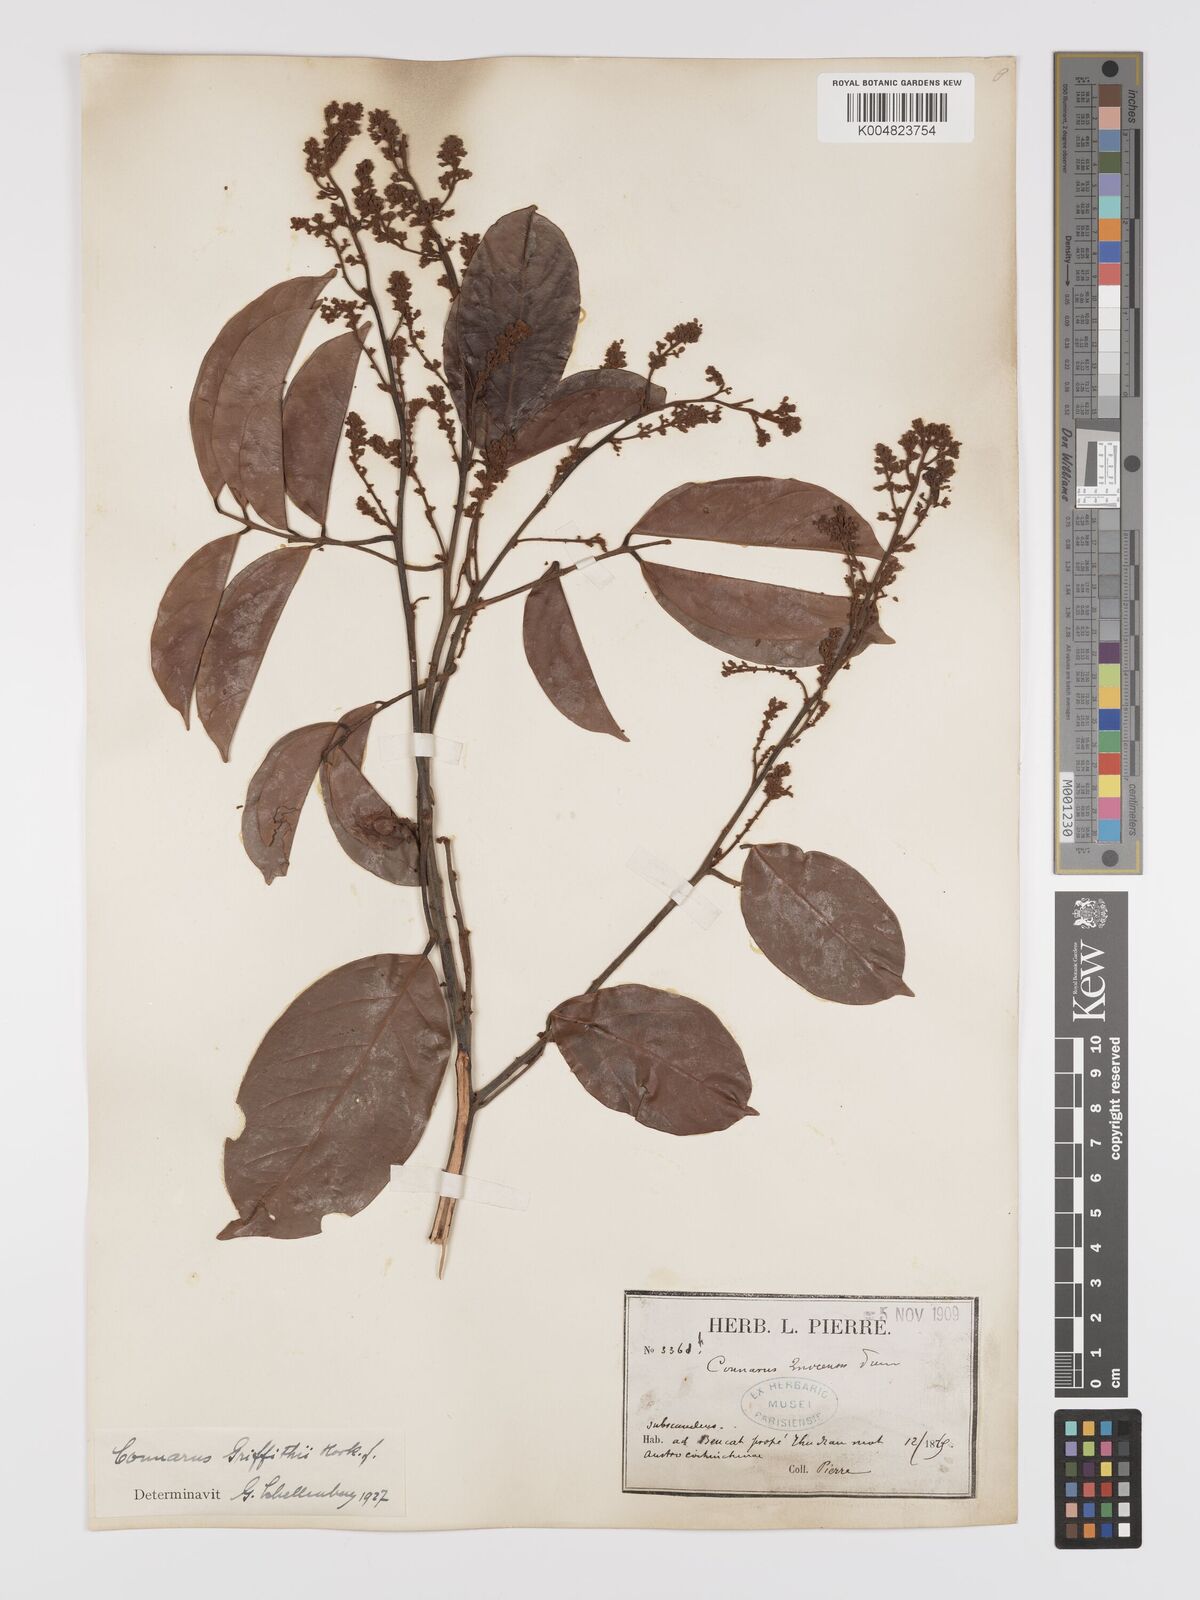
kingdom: Plantae
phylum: Tracheophyta
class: Magnoliopsida
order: Oxalidales
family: Connaraceae
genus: Connarus
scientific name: Connarus semidecandrus
